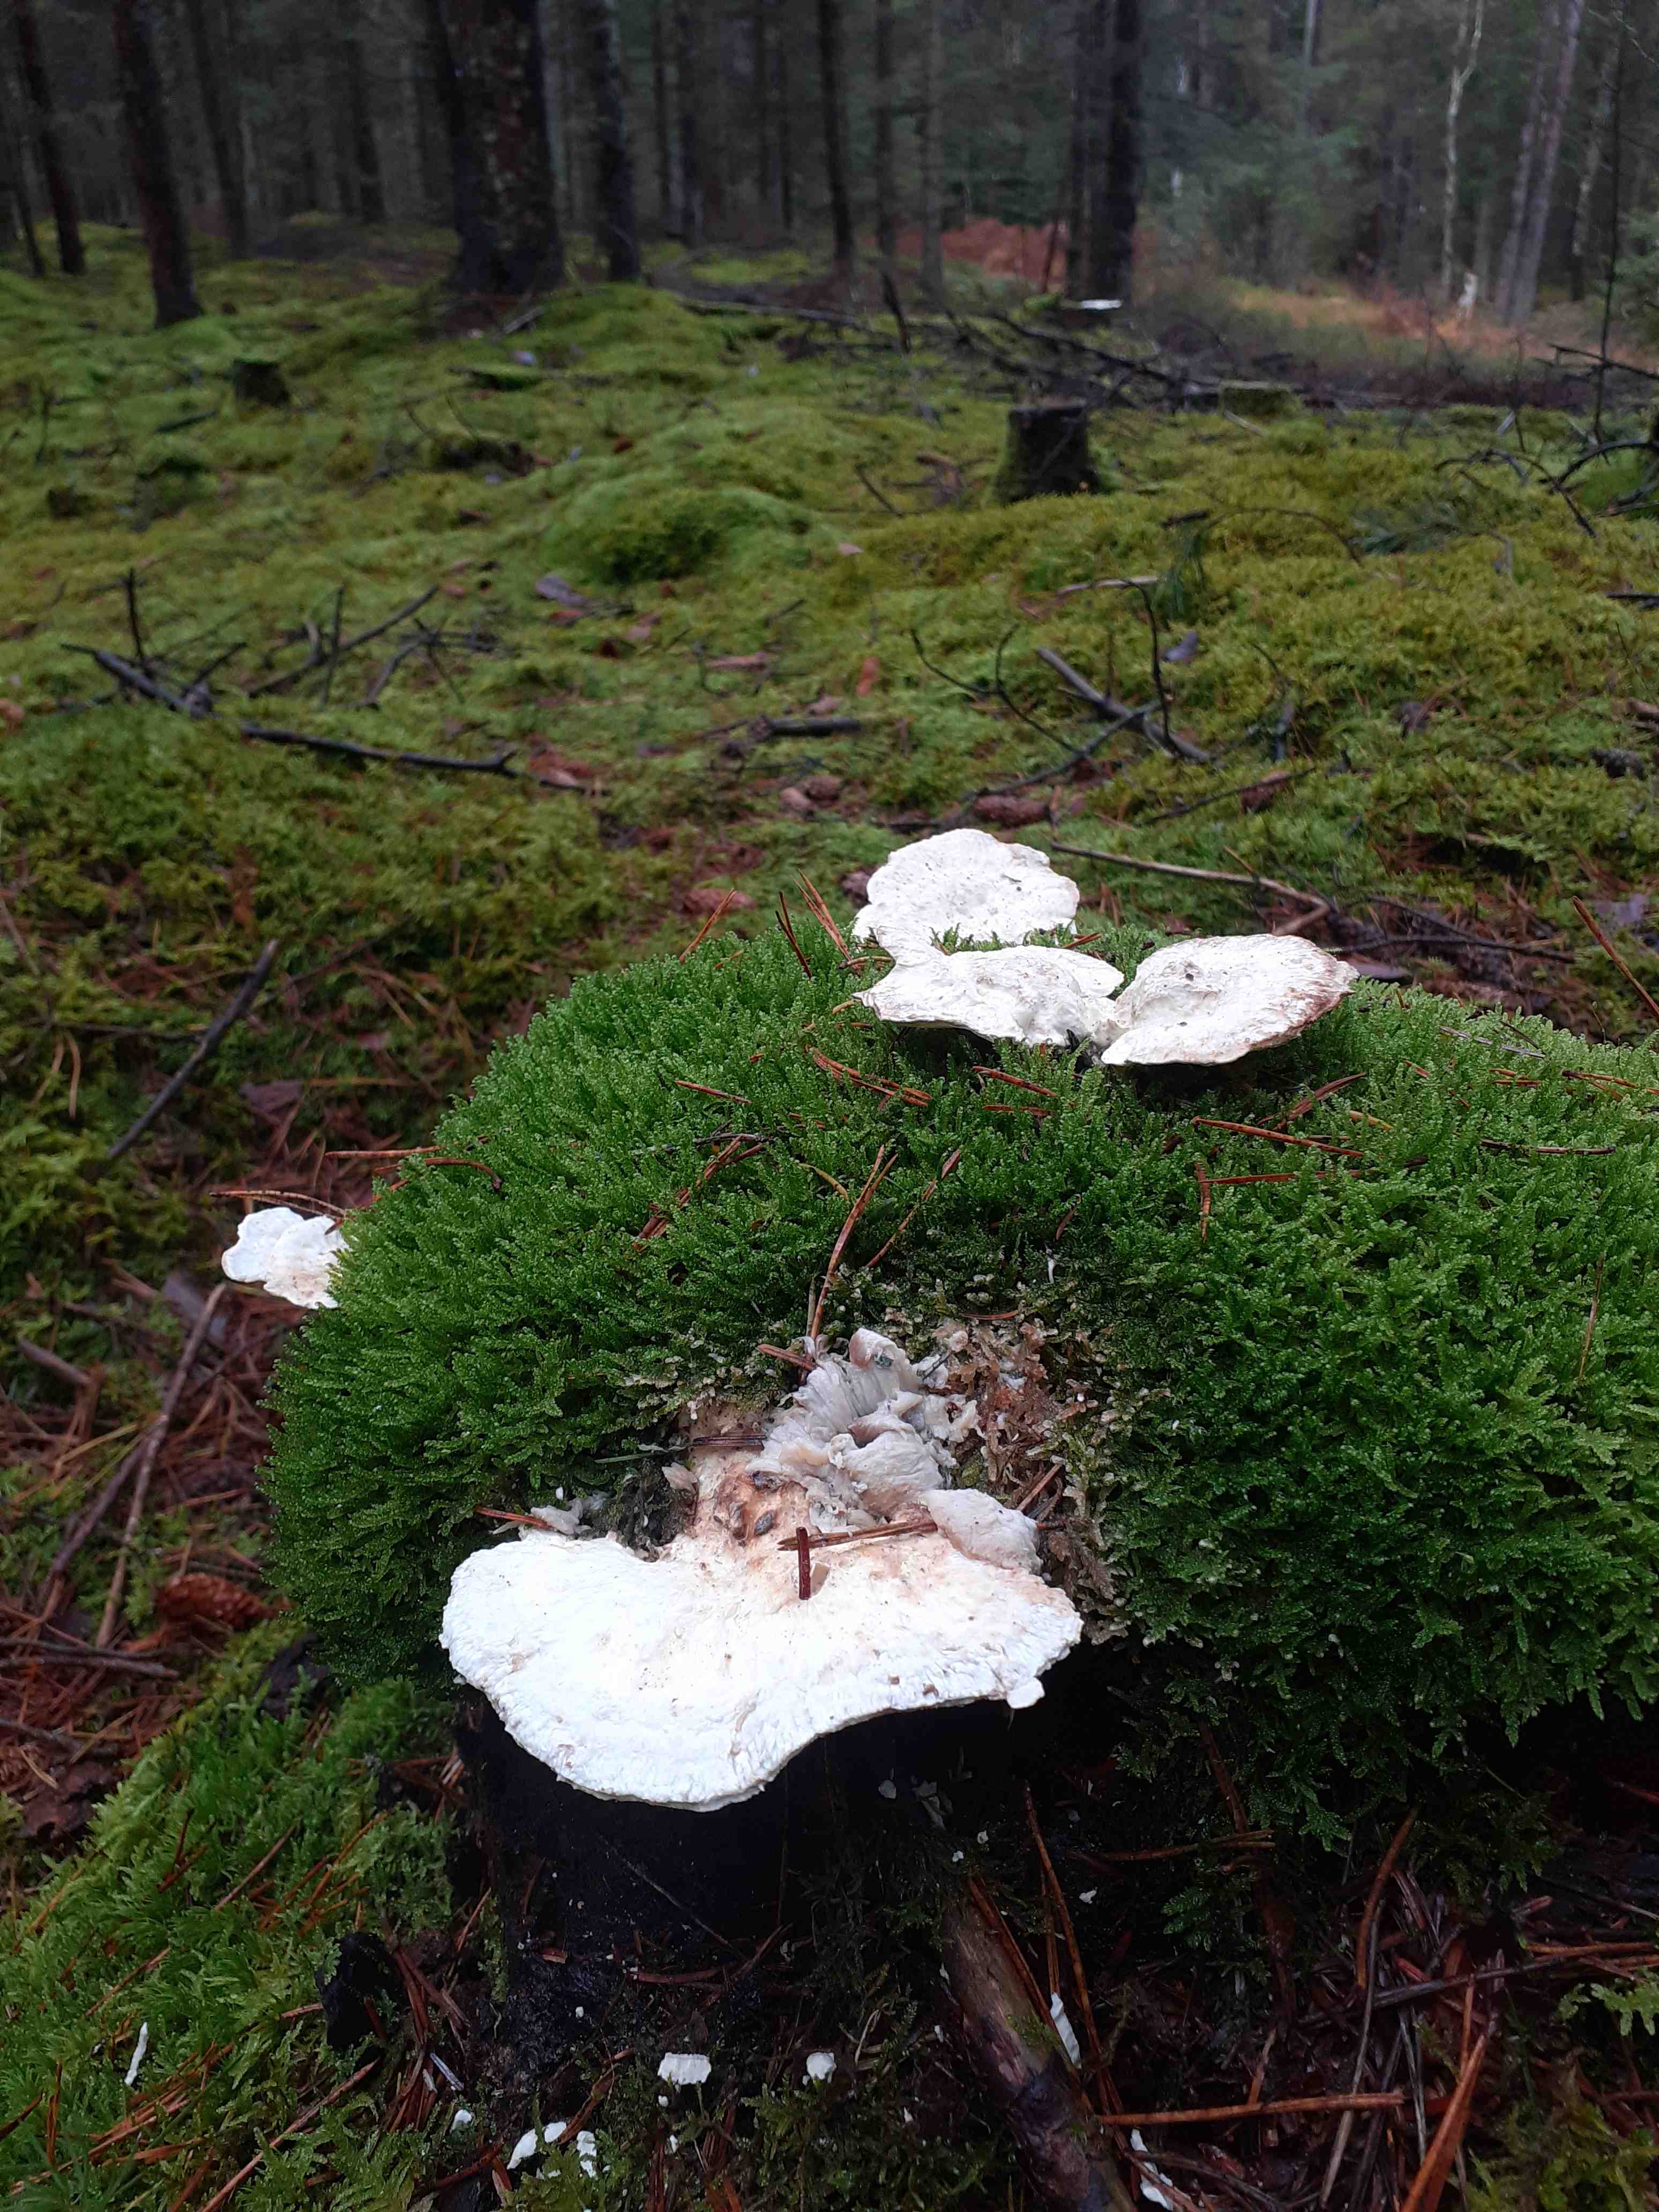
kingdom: Fungi
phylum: Basidiomycota
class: Agaricomycetes
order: Polyporales
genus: Calcipostia
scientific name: Calcipostia guttulata
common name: dråbe-kødporesvamp
